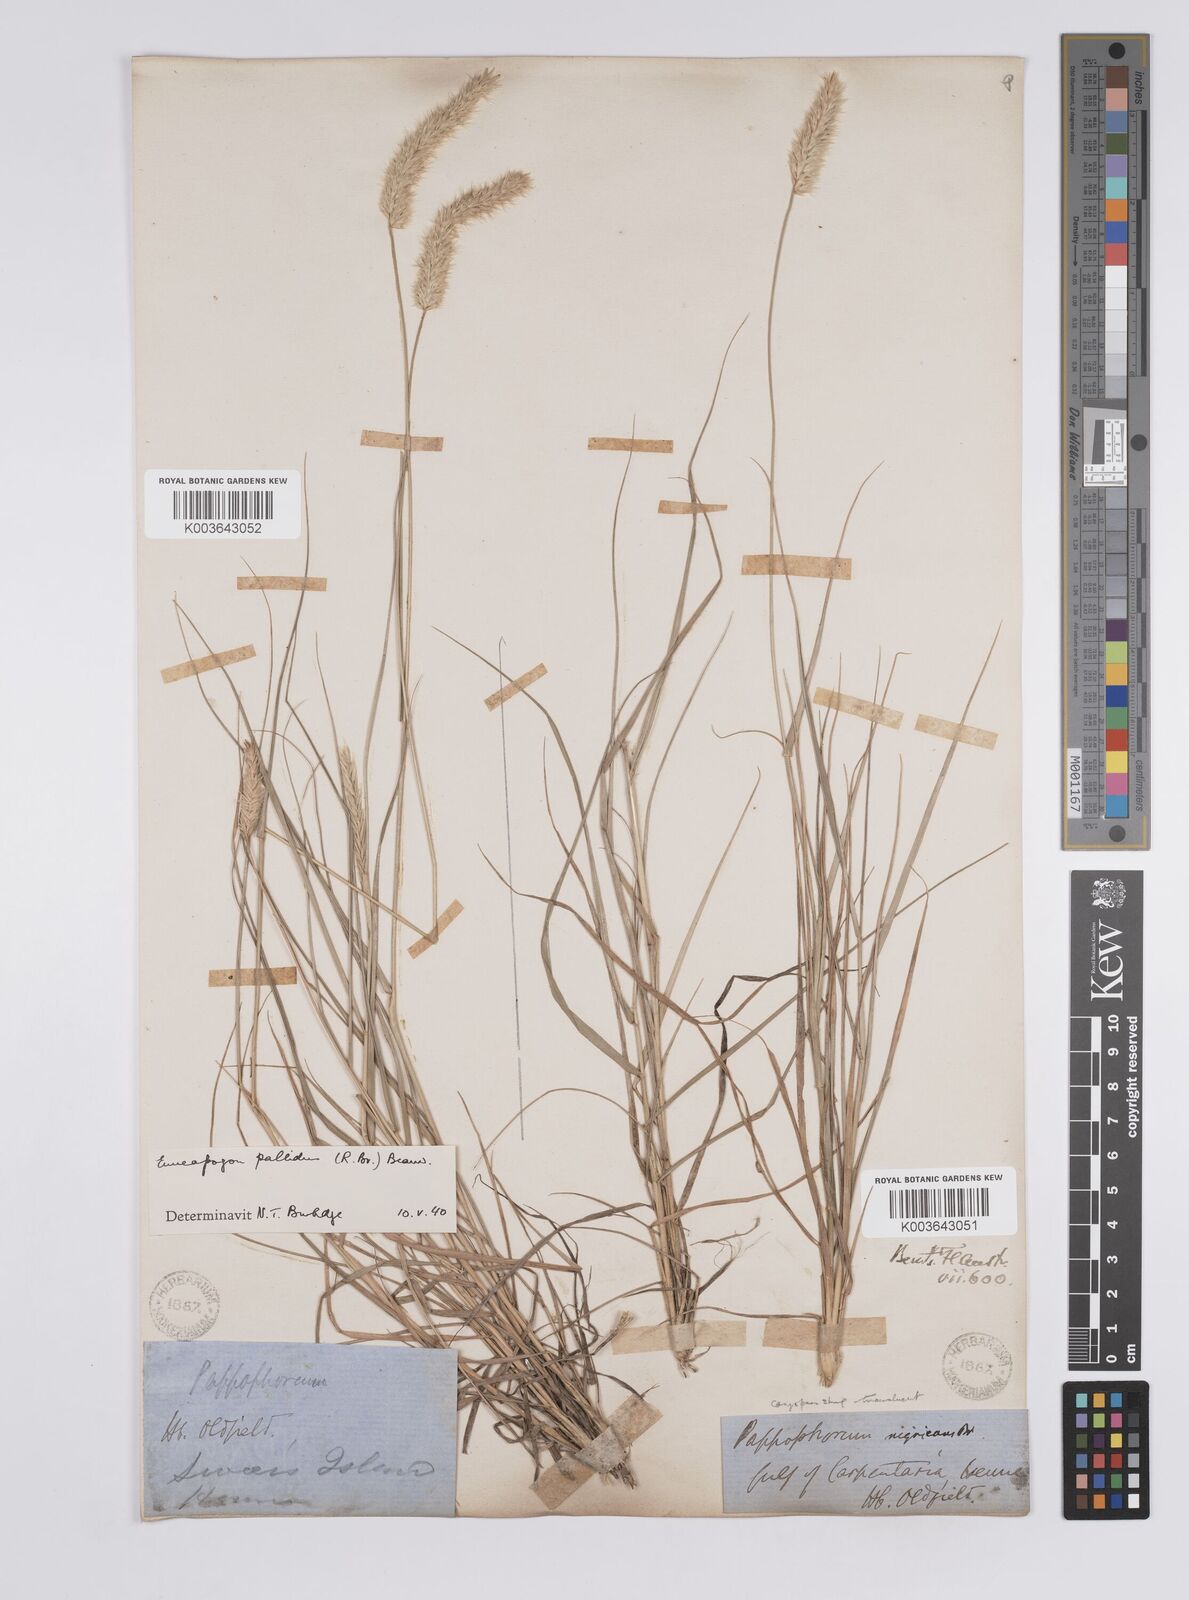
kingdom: Plantae
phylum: Tracheophyta
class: Liliopsida
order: Poales
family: Poaceae
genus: Enneapogon
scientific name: Enneapogon pallidus
